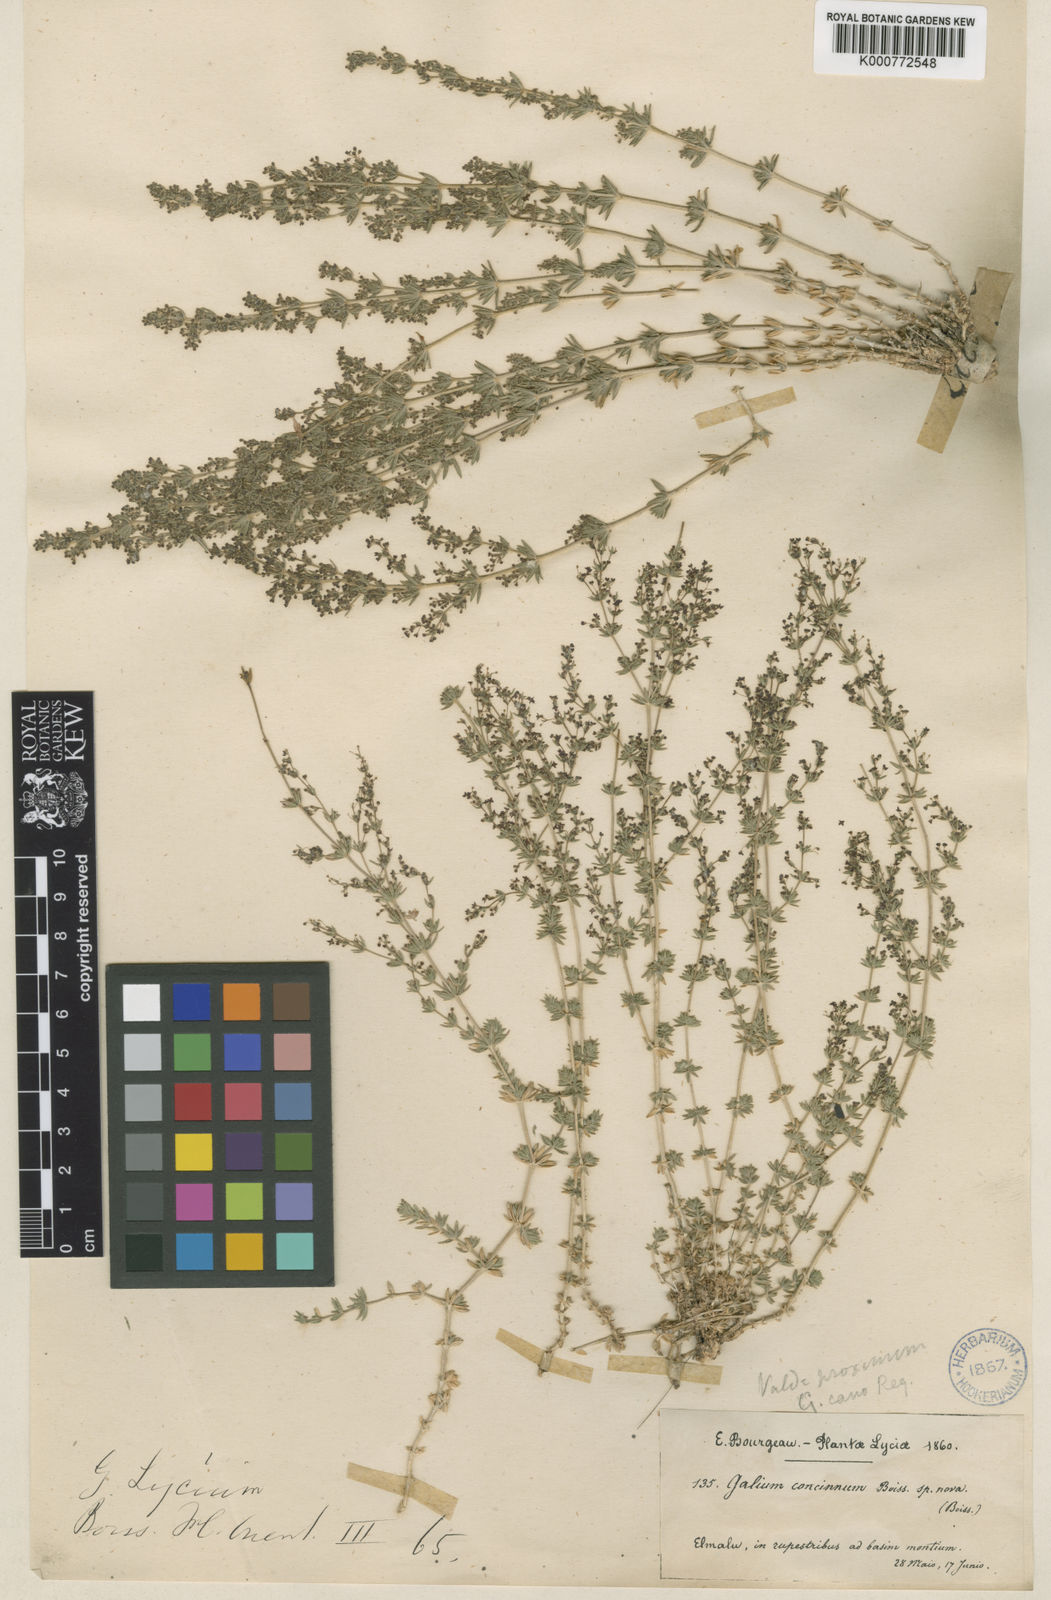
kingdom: Plantae
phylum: Tracheophyta
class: Magnoliopsida
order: Gentianales
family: Rubiaceae
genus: Galium
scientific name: Galium dumosum
